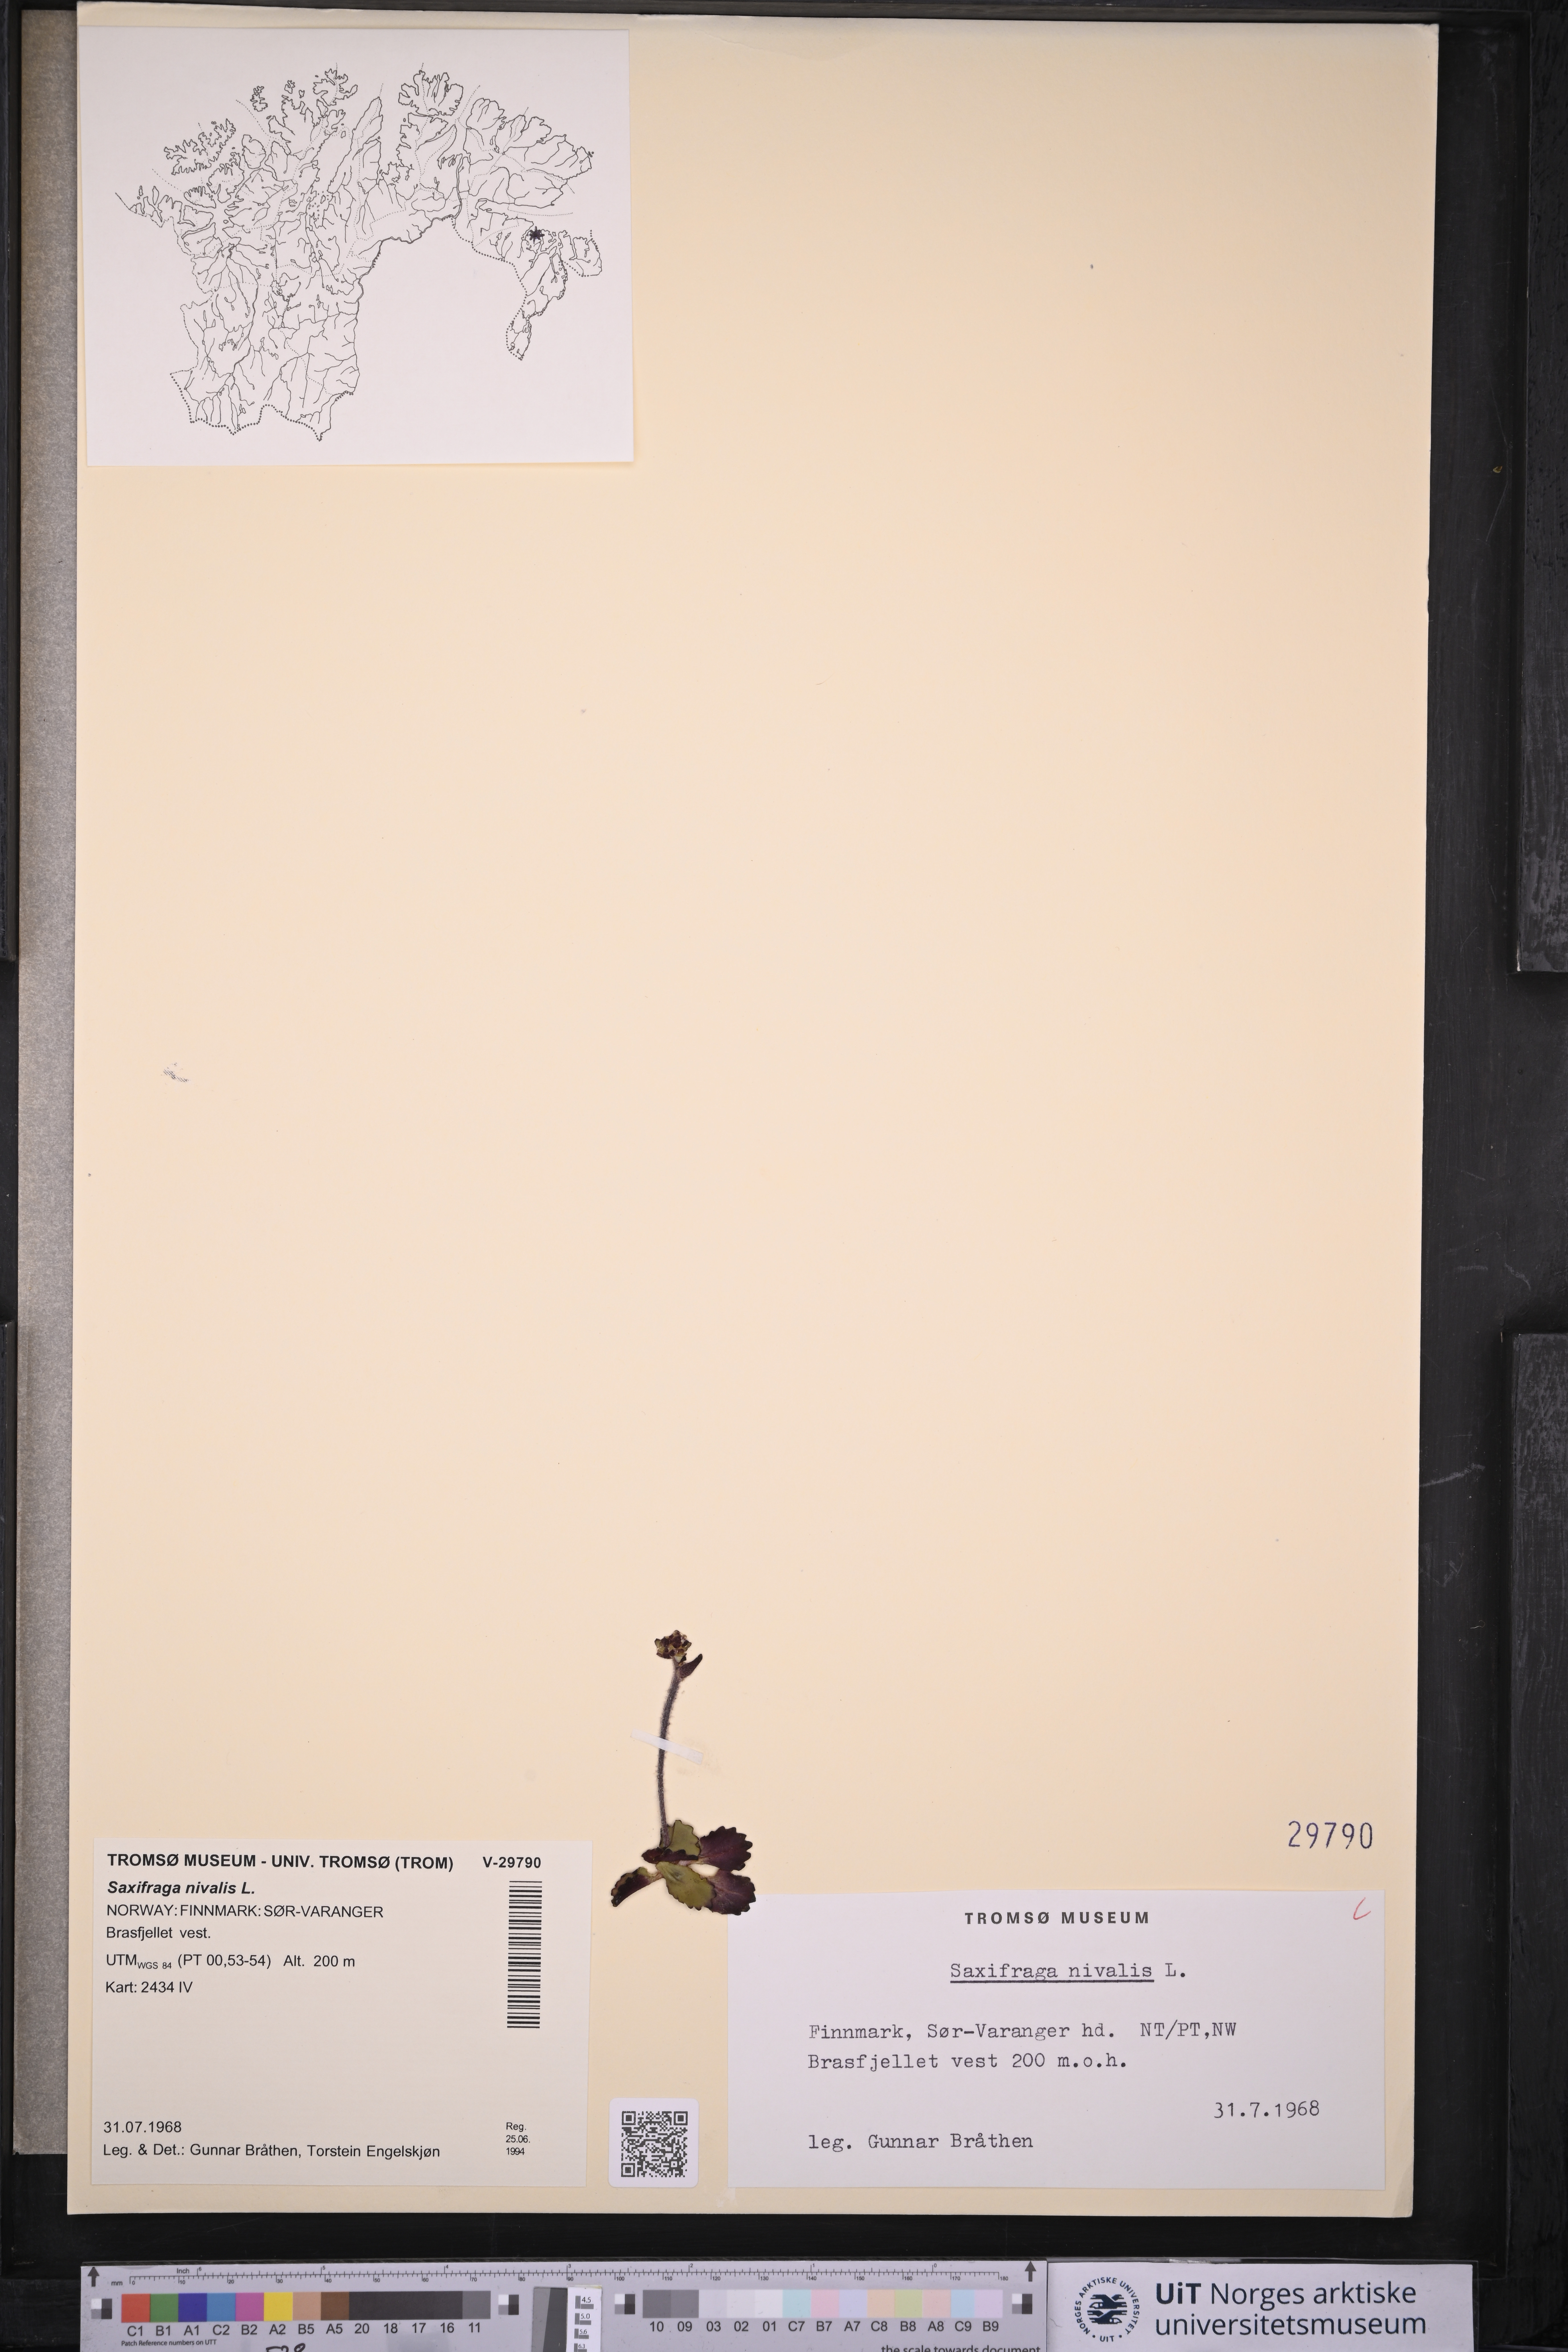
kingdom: Plantae
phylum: Tracheophyta
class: Magnoliopsida
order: Saxifragales
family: Saxifragaceae
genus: Micranthes
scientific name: Micranthes nivalis
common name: Alpine saxifrage
